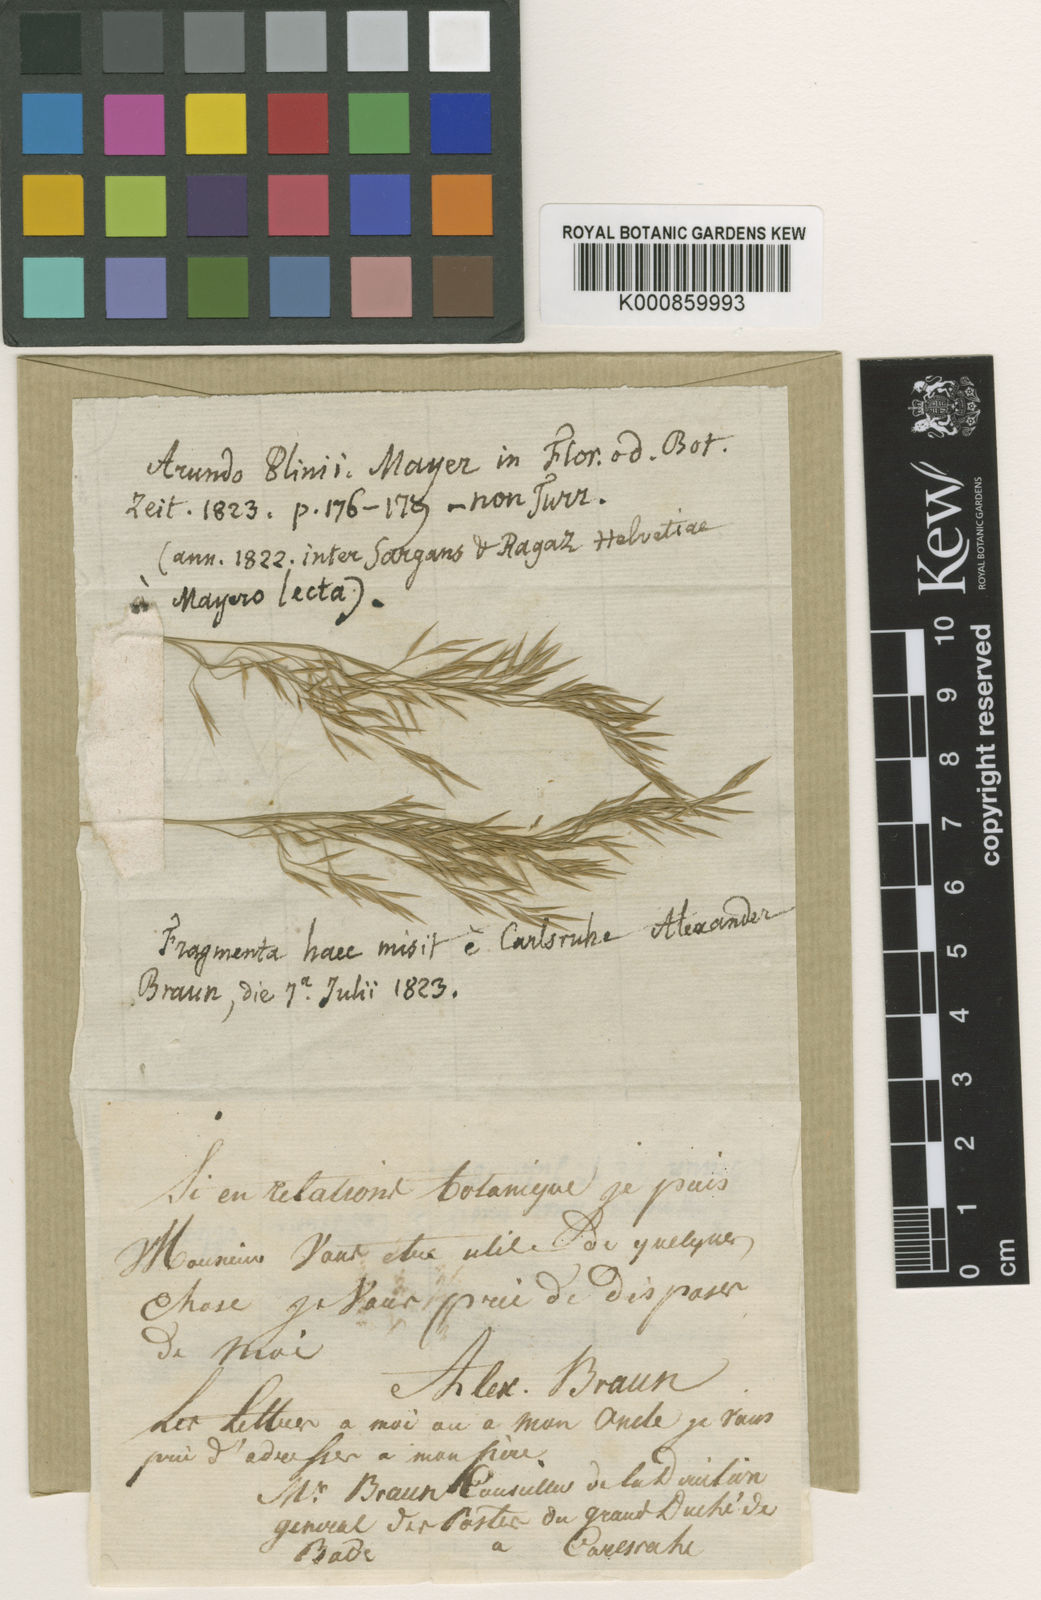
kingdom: Plantae
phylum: Tracheophyta
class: Liliopsida
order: Poales
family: Poaceae
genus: Phragmites
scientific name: Phragmites australis
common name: Common reed
